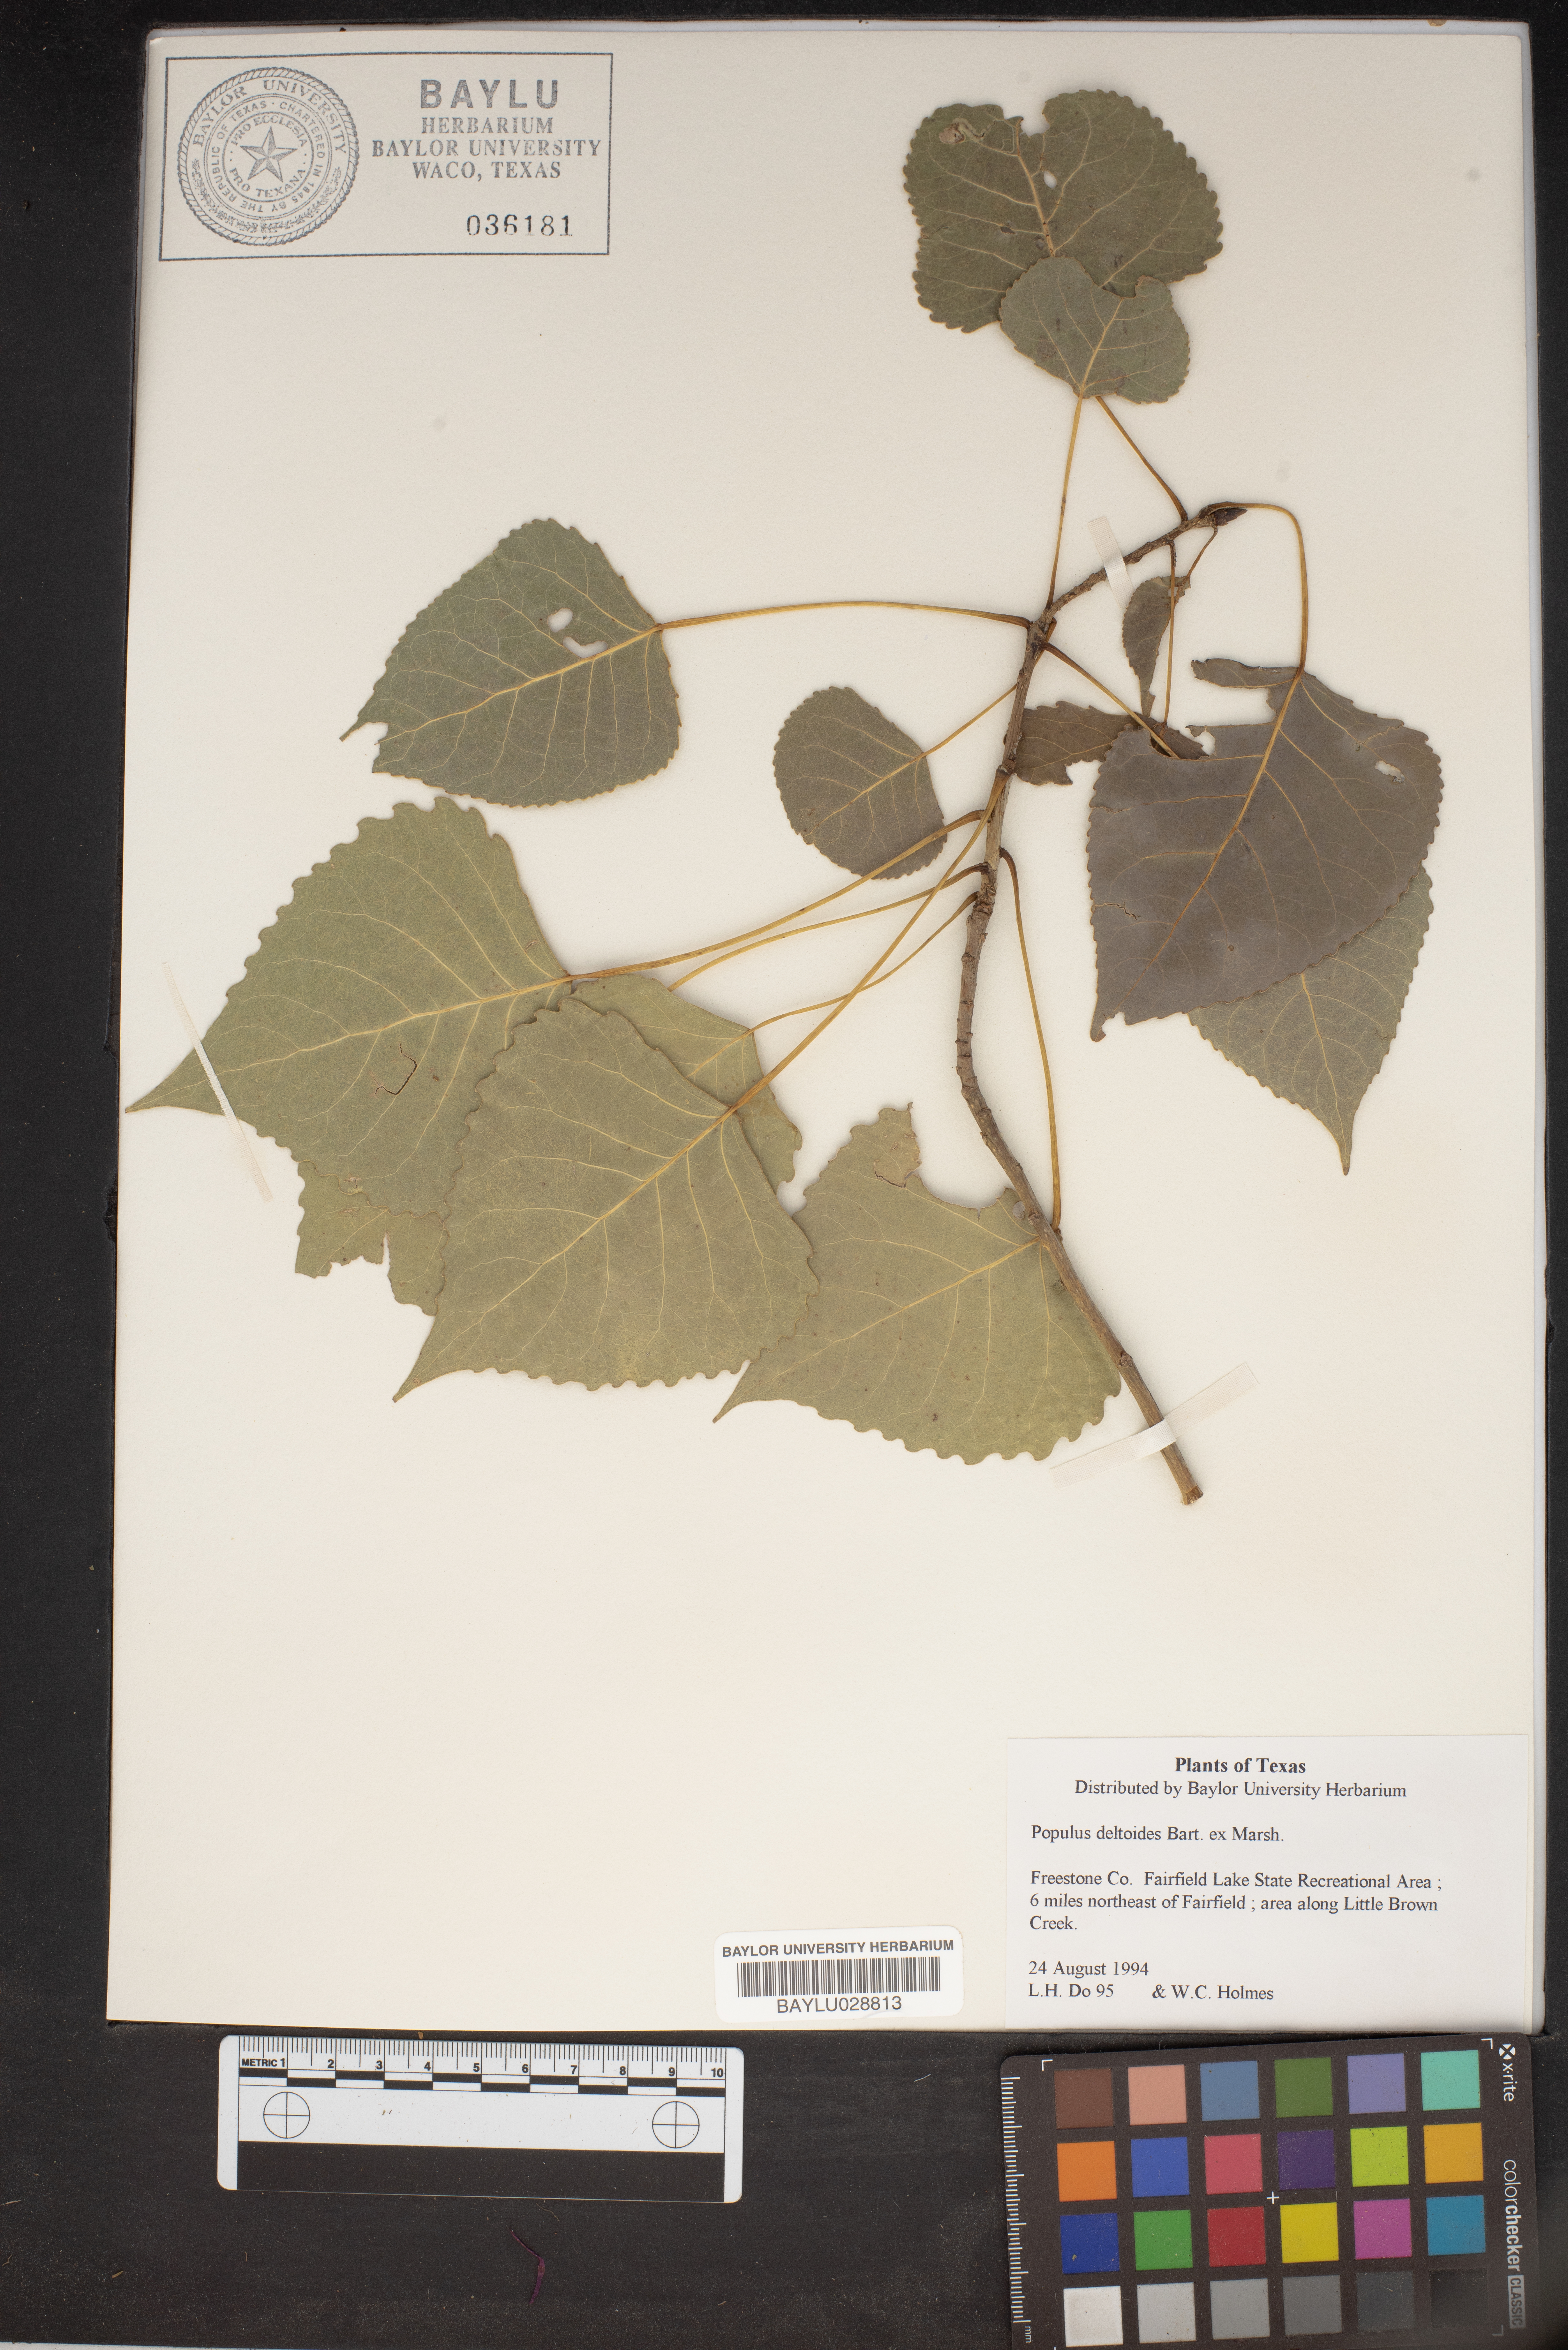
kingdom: Plantae
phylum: Tracheophyta
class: Magnoliopsida
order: Malpighiales
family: Salicaceae
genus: Populus
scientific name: Populus deltoides
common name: Eastern cottonwood
